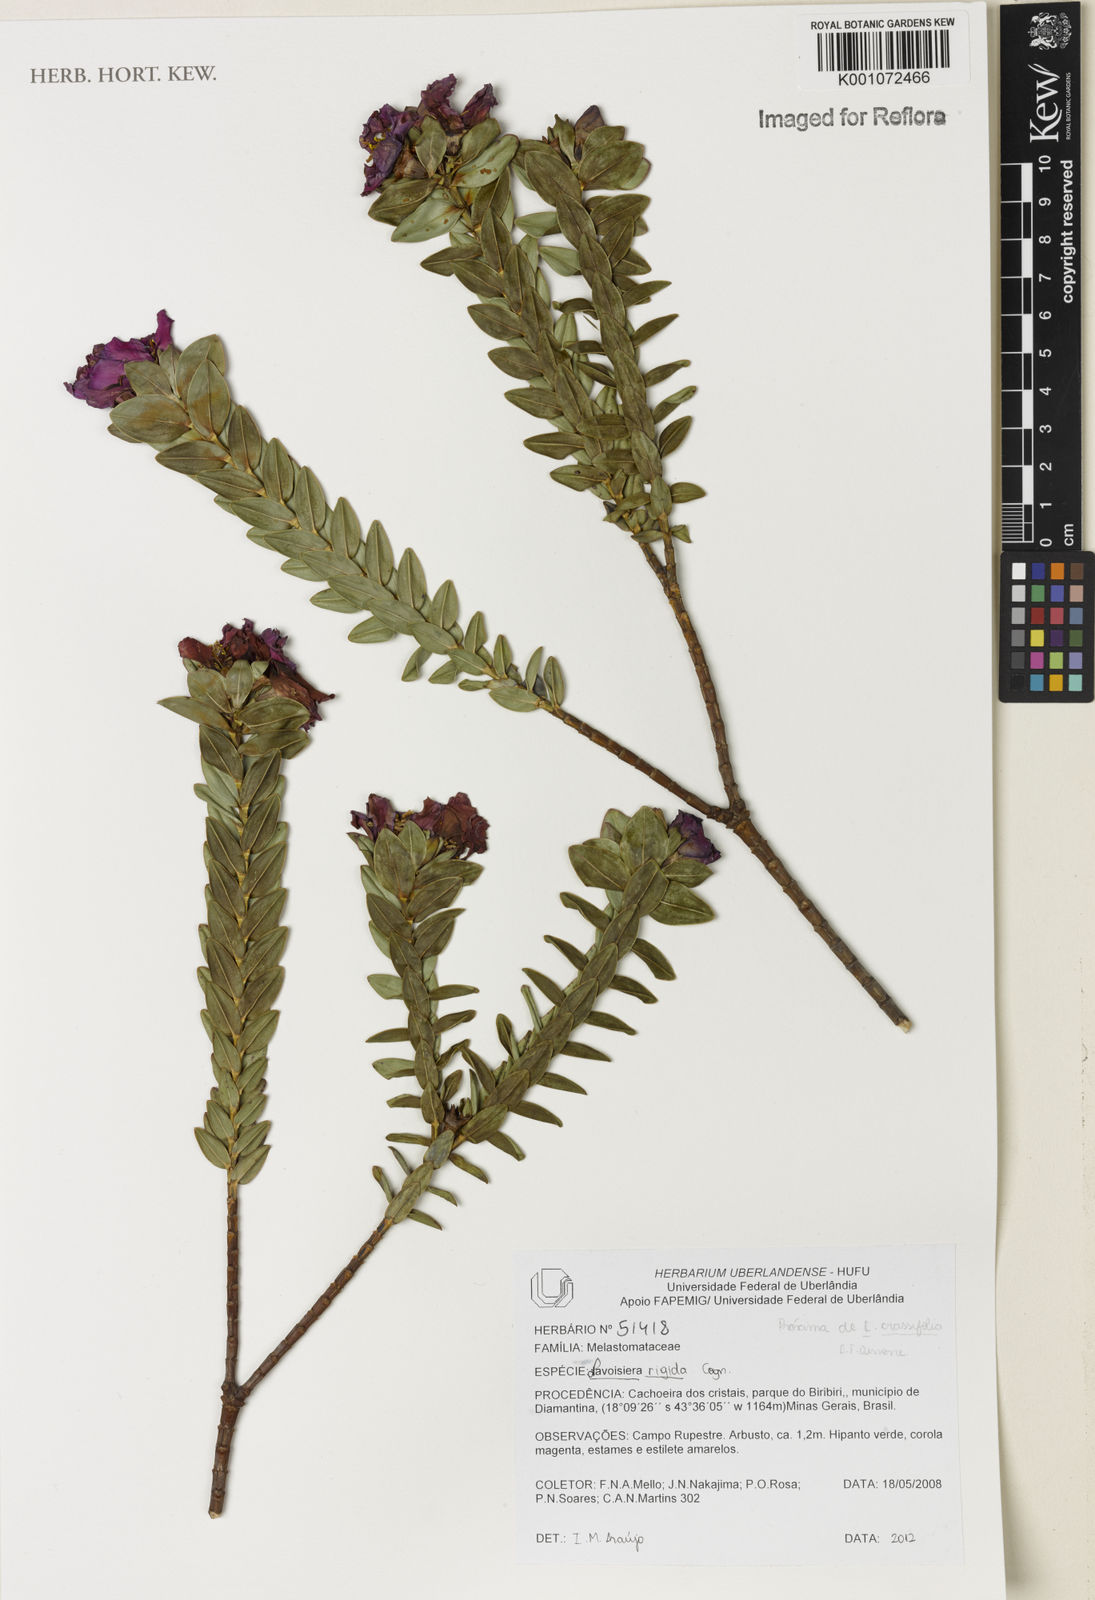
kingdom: Plantae
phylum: Tracheophyta
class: Magnoliopsida
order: Myrtales
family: Melastomataceae
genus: Microlicia
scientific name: Microlicia rigida
